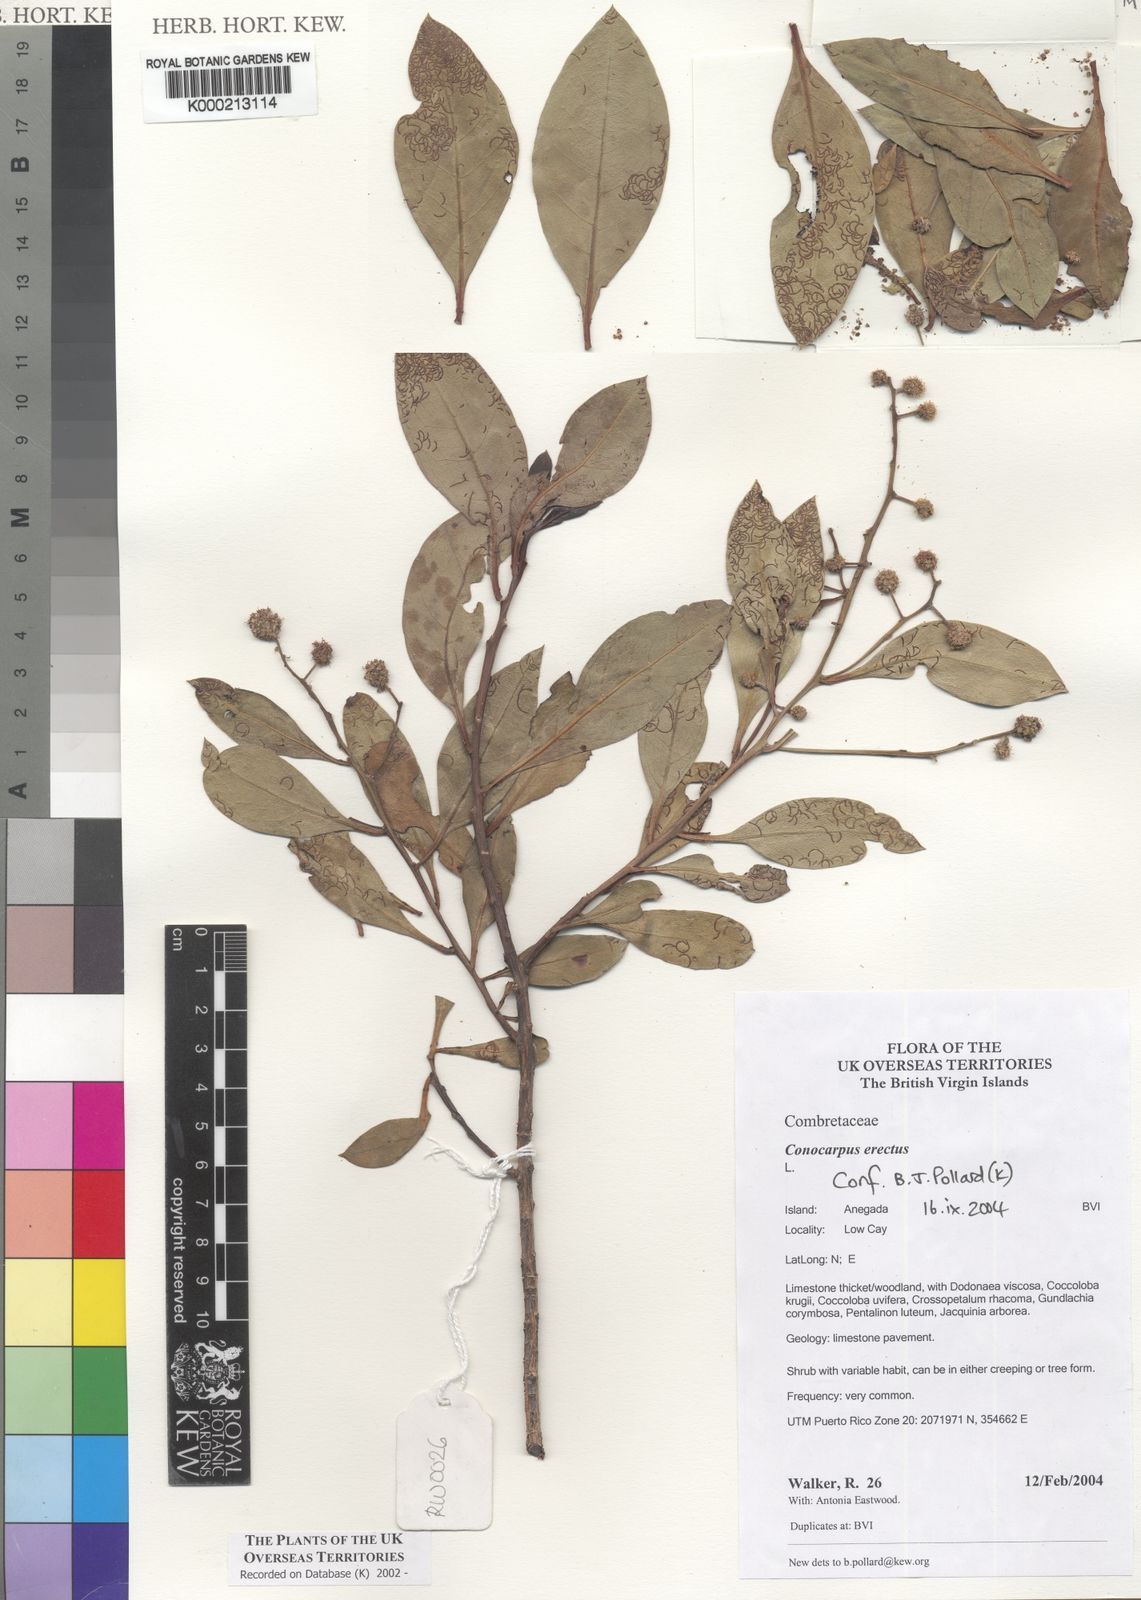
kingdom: Plantae
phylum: Tracheophyta
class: Magnoliopsida
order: Myrtales
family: Combretaceae
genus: Conocarpus
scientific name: Conocarpus erectus
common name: Button mangrove
